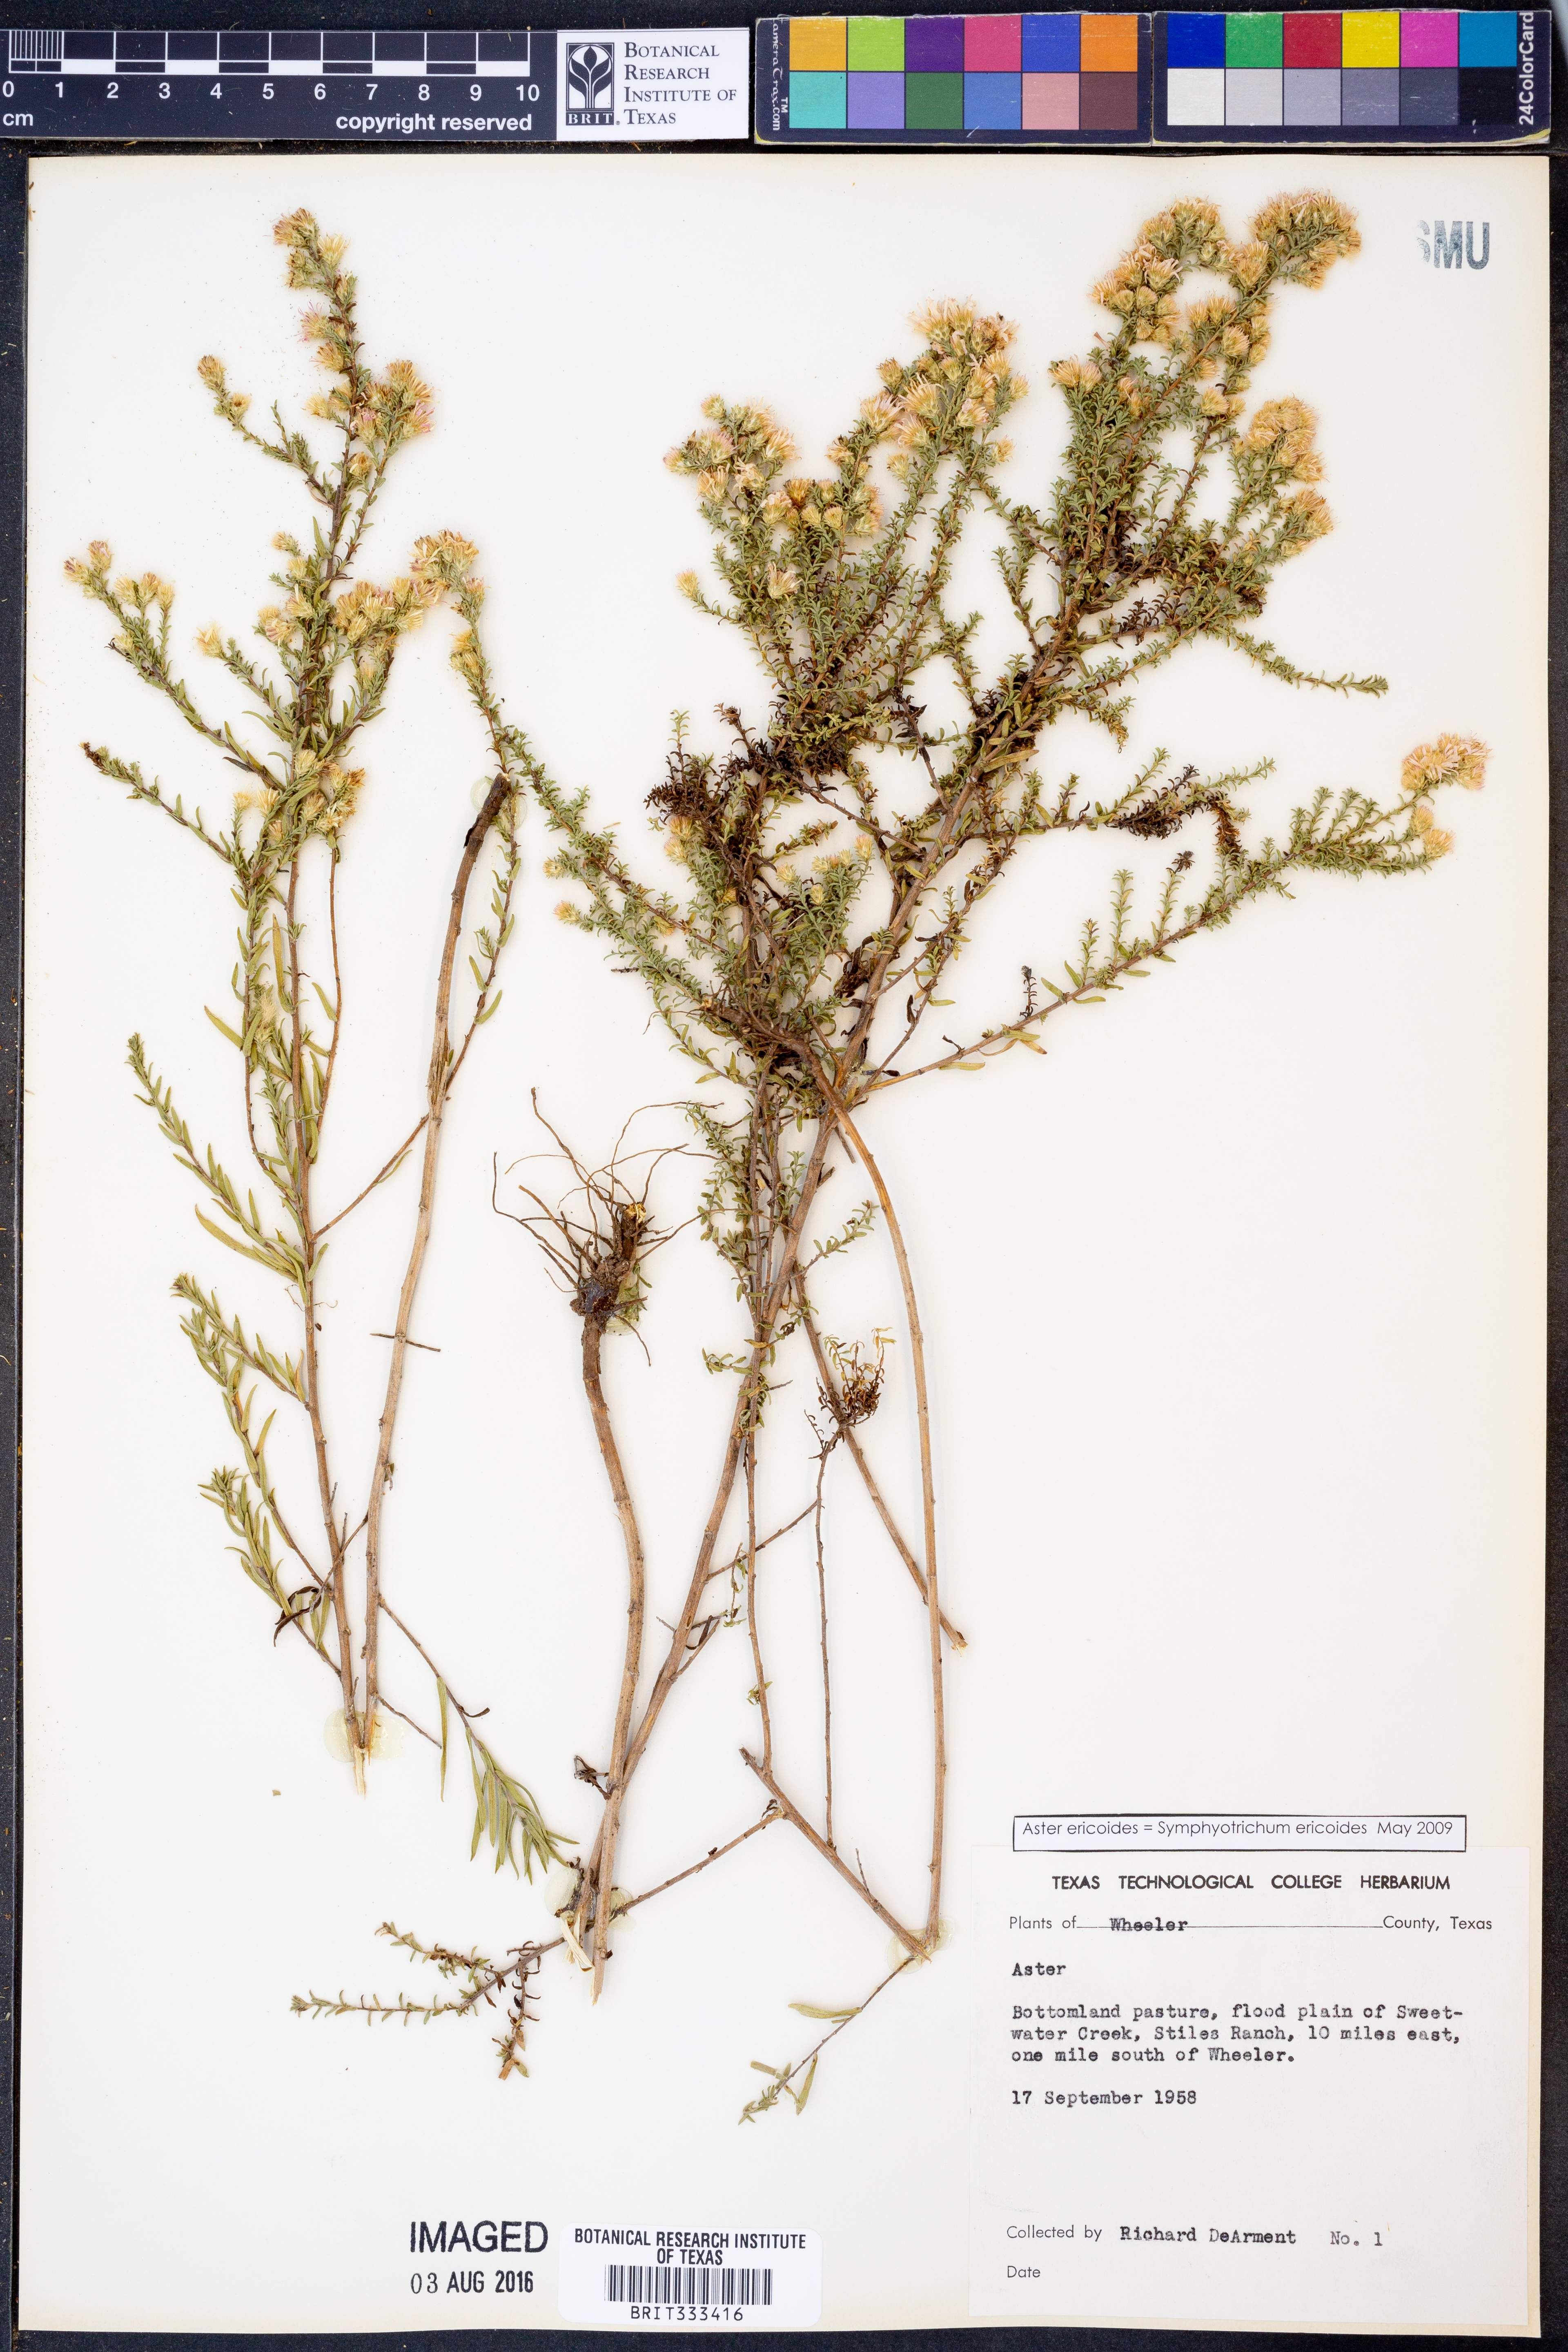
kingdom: Plantae
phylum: Tracheophyta
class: Magnoliopsida
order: Asterales
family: Asteraceae
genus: Symphyotrichum
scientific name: Symphyotrichum ericoides
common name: Heath aster
